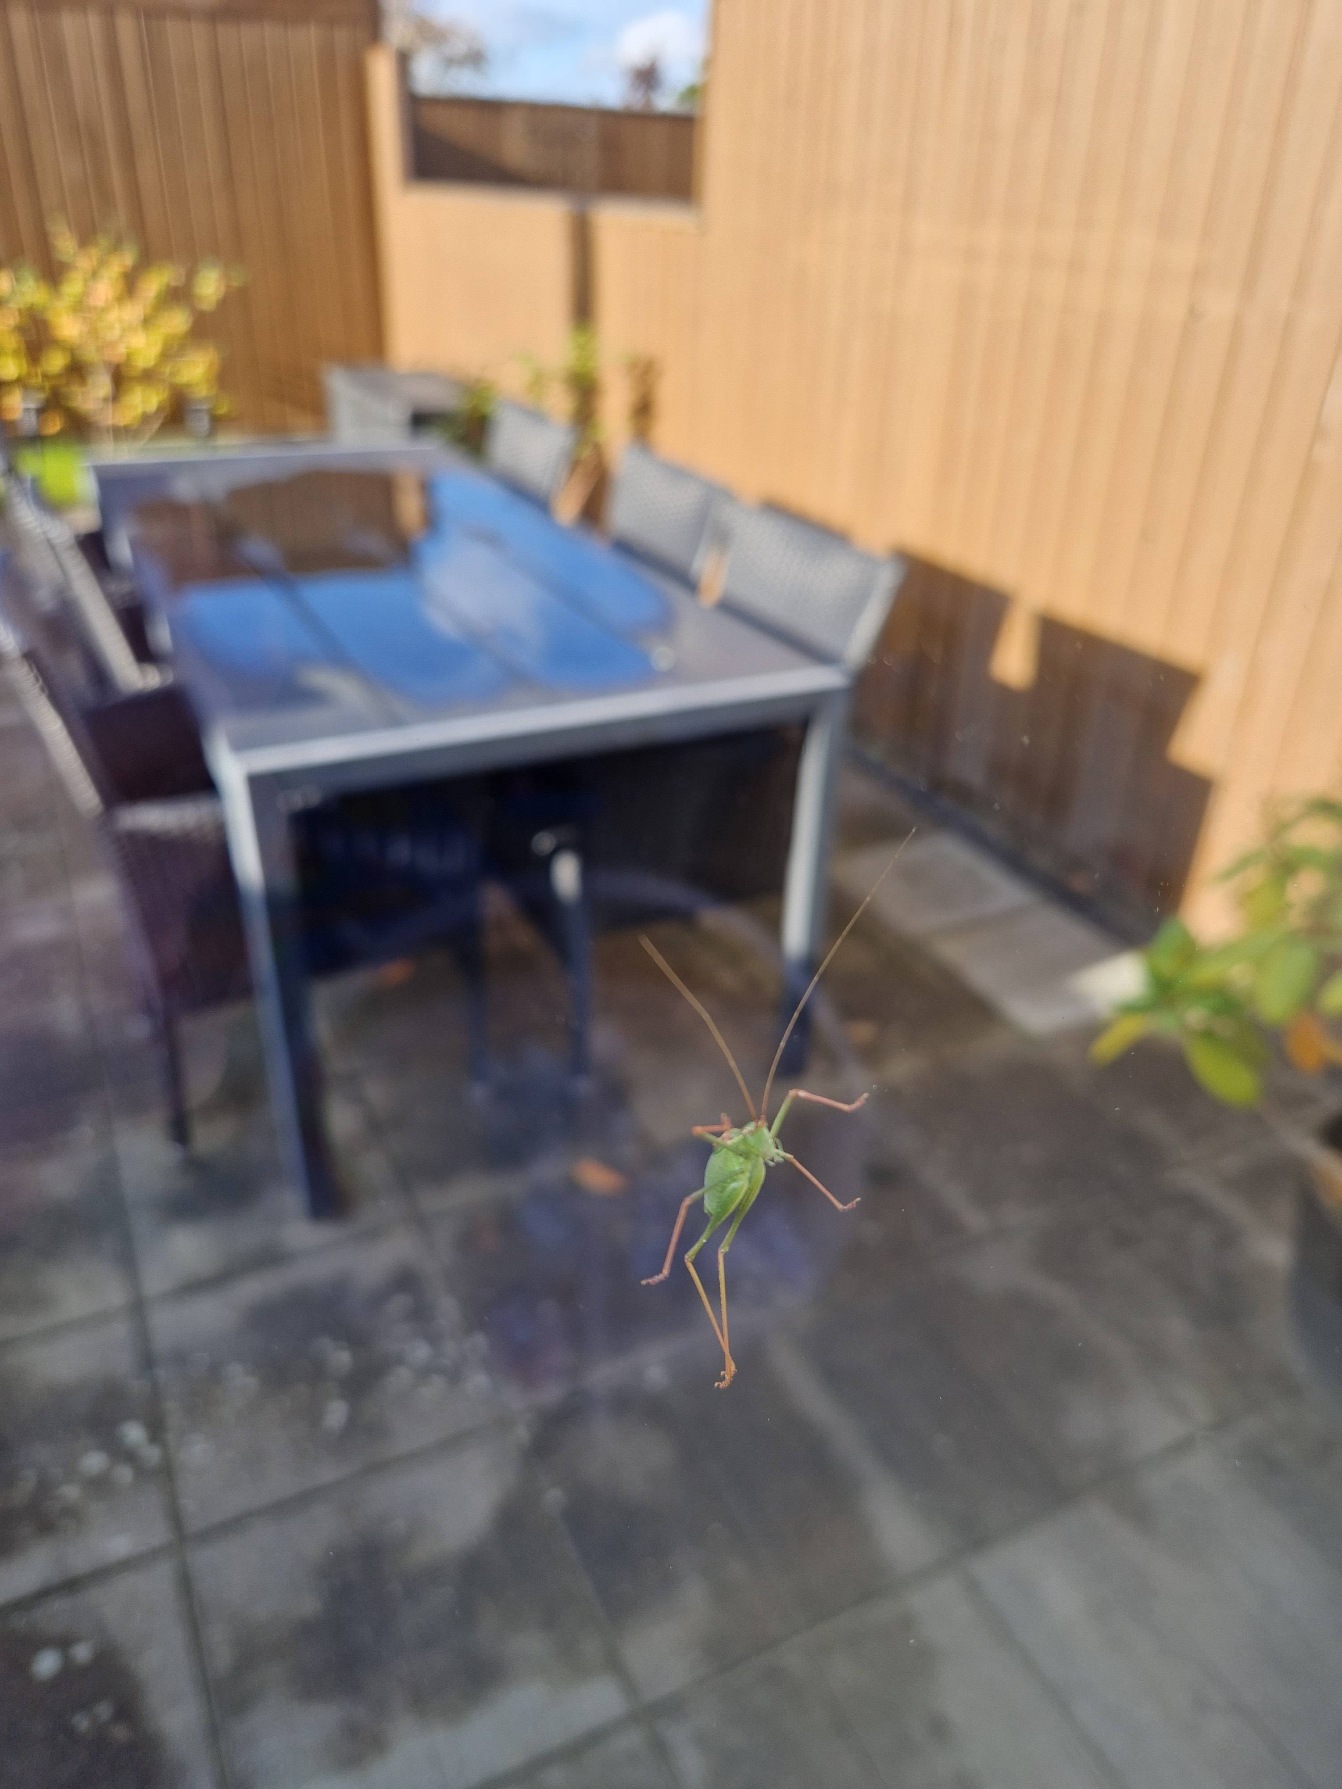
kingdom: Animalia
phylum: Arthropoda
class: Insecta
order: Orthoptera
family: Tettigoniidae
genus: Leptophyes
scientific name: Leptophyes punctatissima
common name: Krumknivgræshoppe
